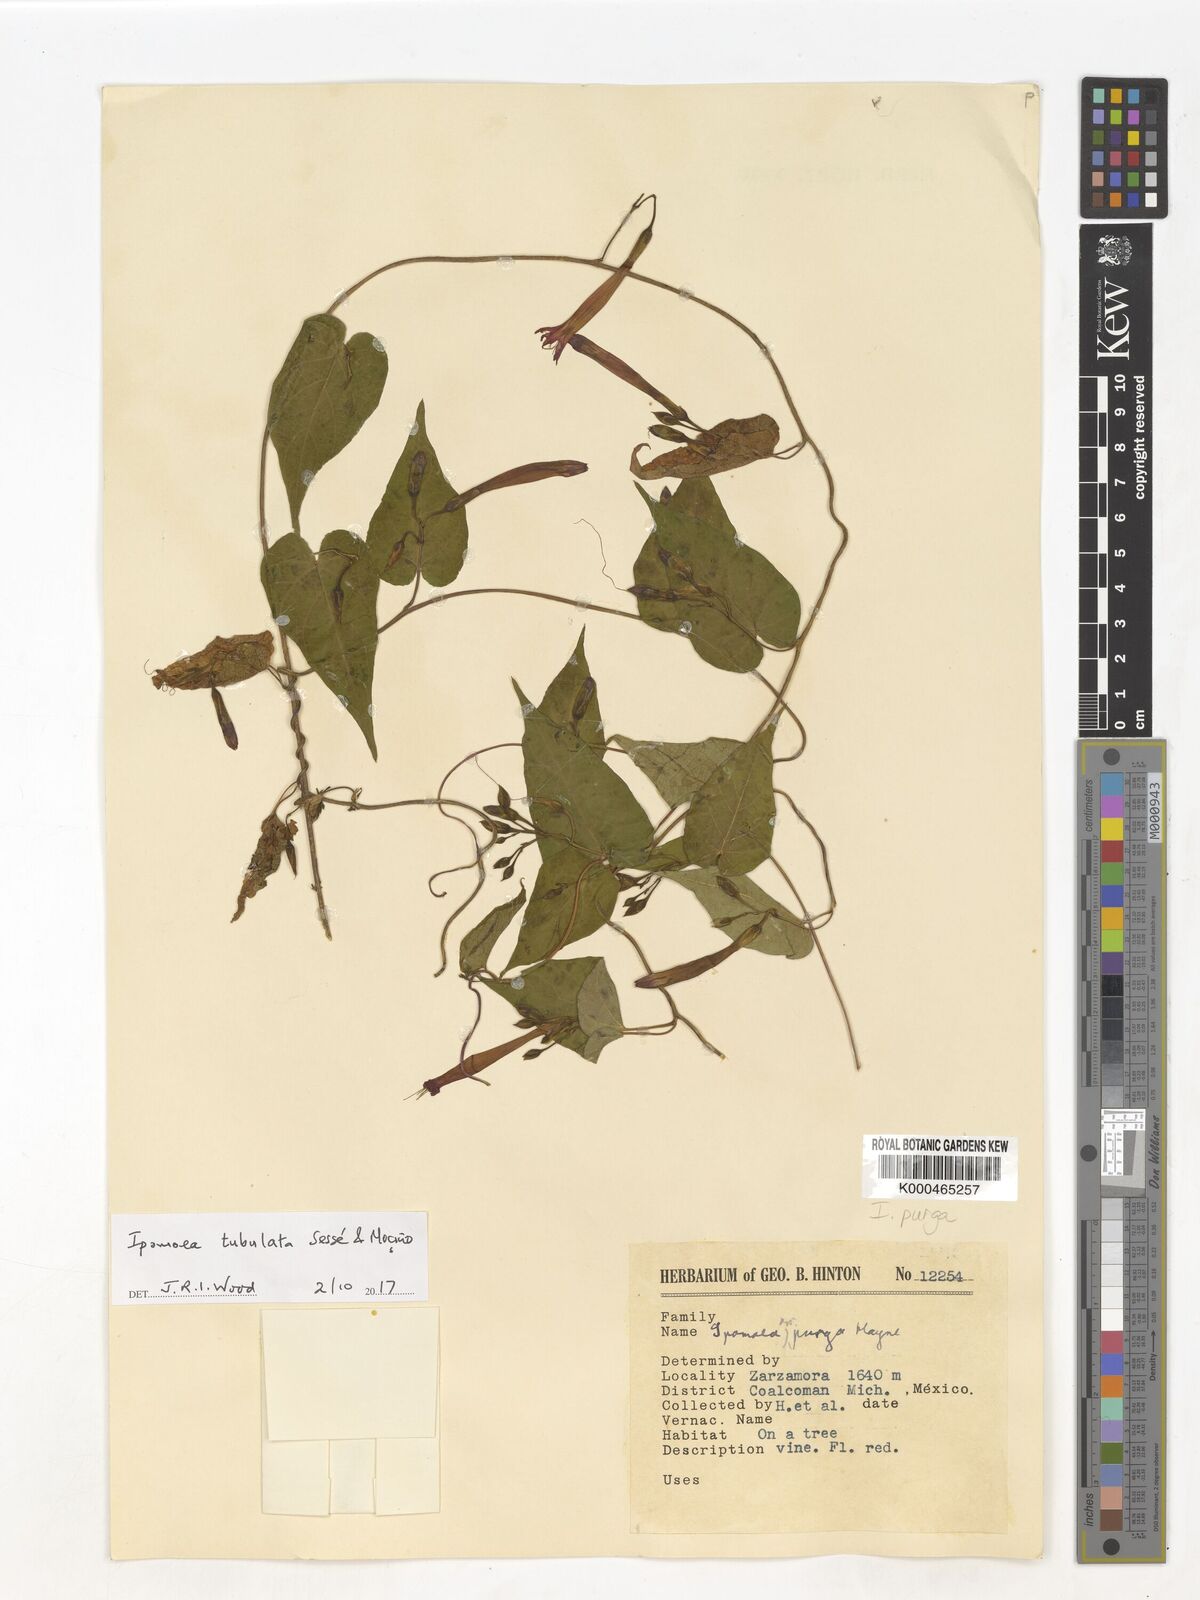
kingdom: Plantae
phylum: Tracheophyta
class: Magnoliopsida
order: Solanales
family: Convolvulaceae
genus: Ipomoea
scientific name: Ipomoea purga
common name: Jalap
